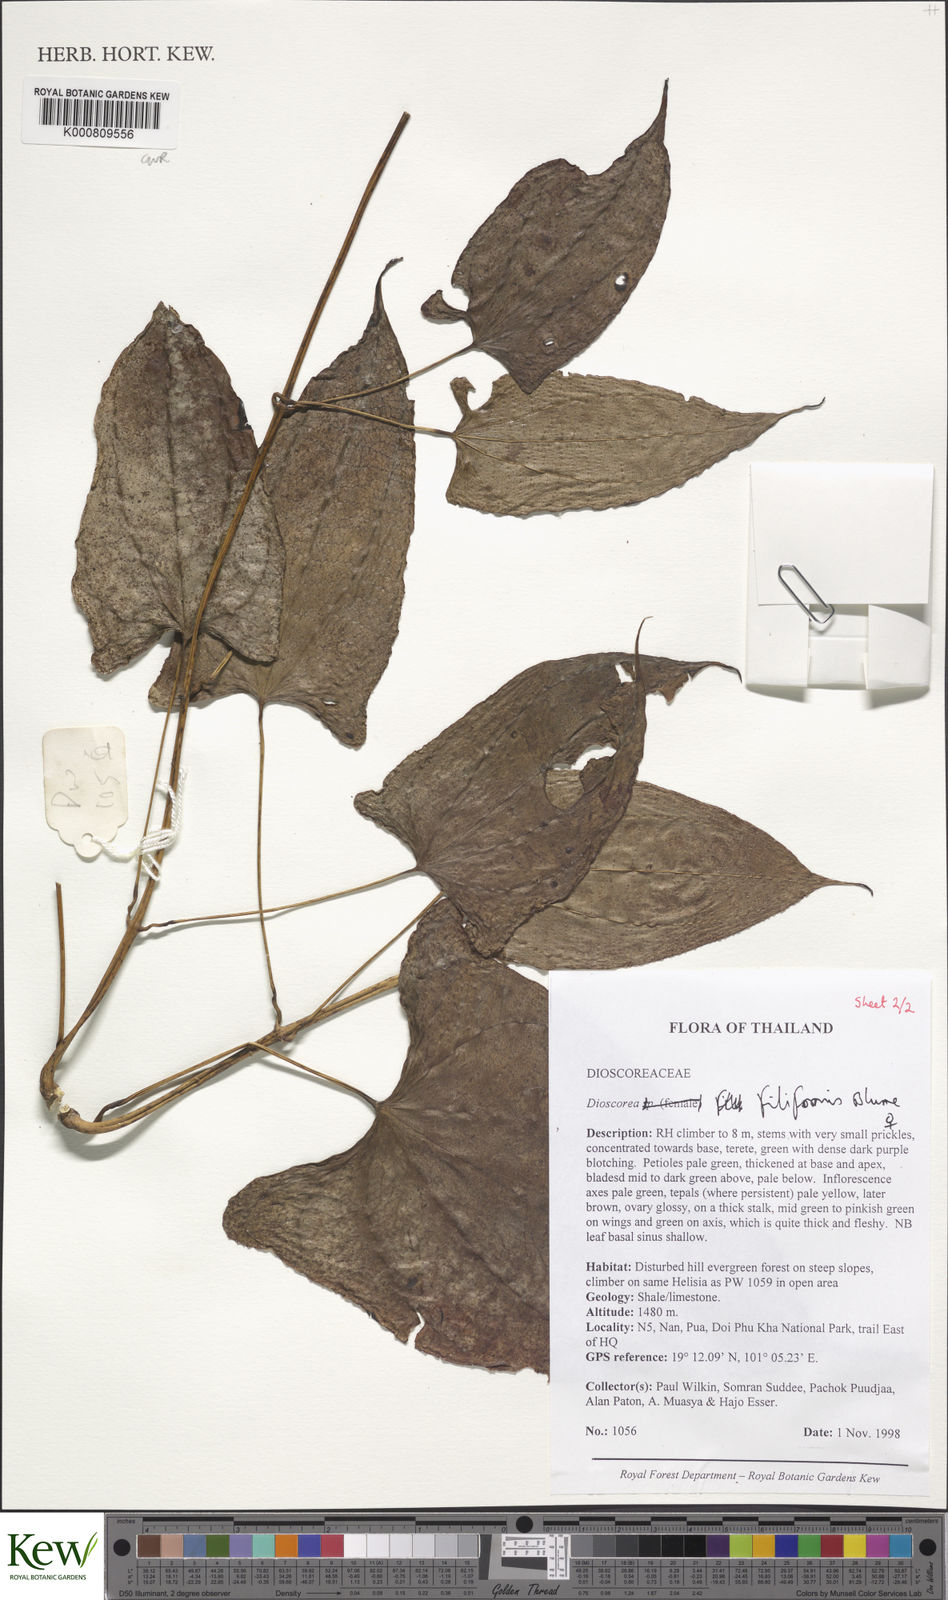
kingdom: Plantae
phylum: Tracheophyta
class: Liliopsida
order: Dioscoreales
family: Dioscoreaceae
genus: Dioscorea
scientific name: Dioscorea filiformis
